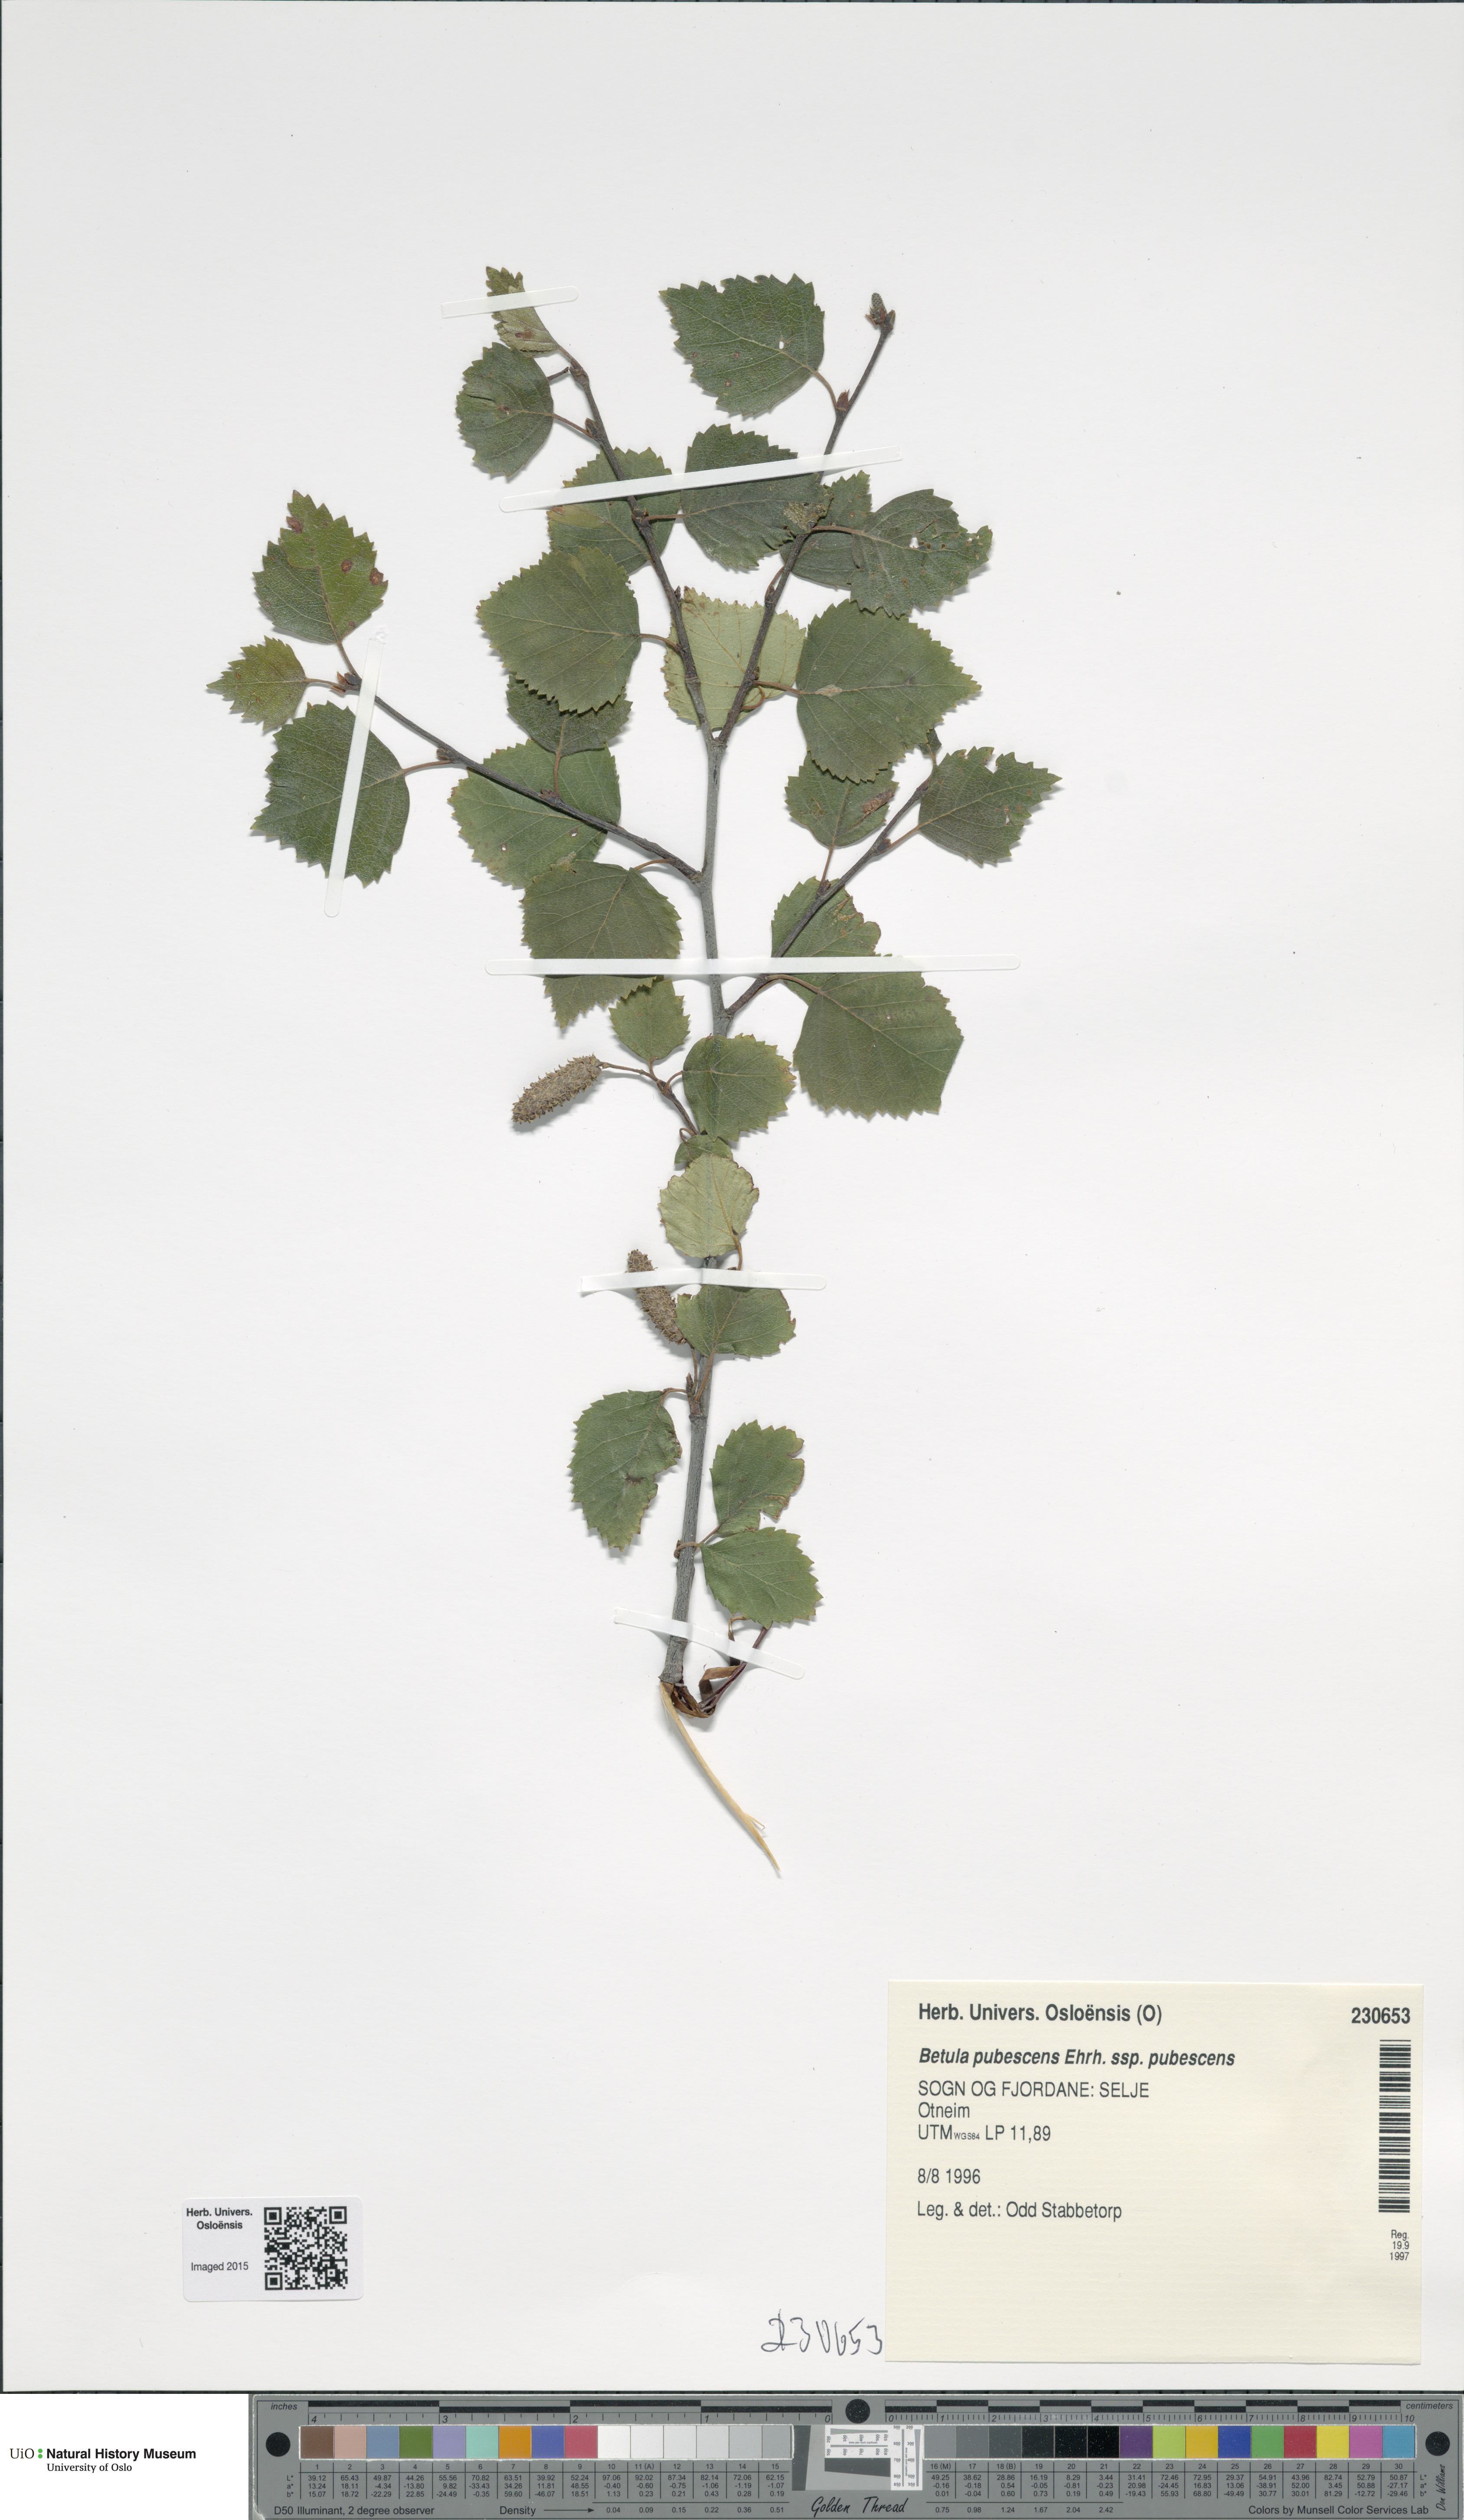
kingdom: Plantae
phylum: Tracheophyta
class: Magnoliopsida
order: Fagales
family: Betulaceae
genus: Betula
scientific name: Betula pubescens
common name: Downy birch
